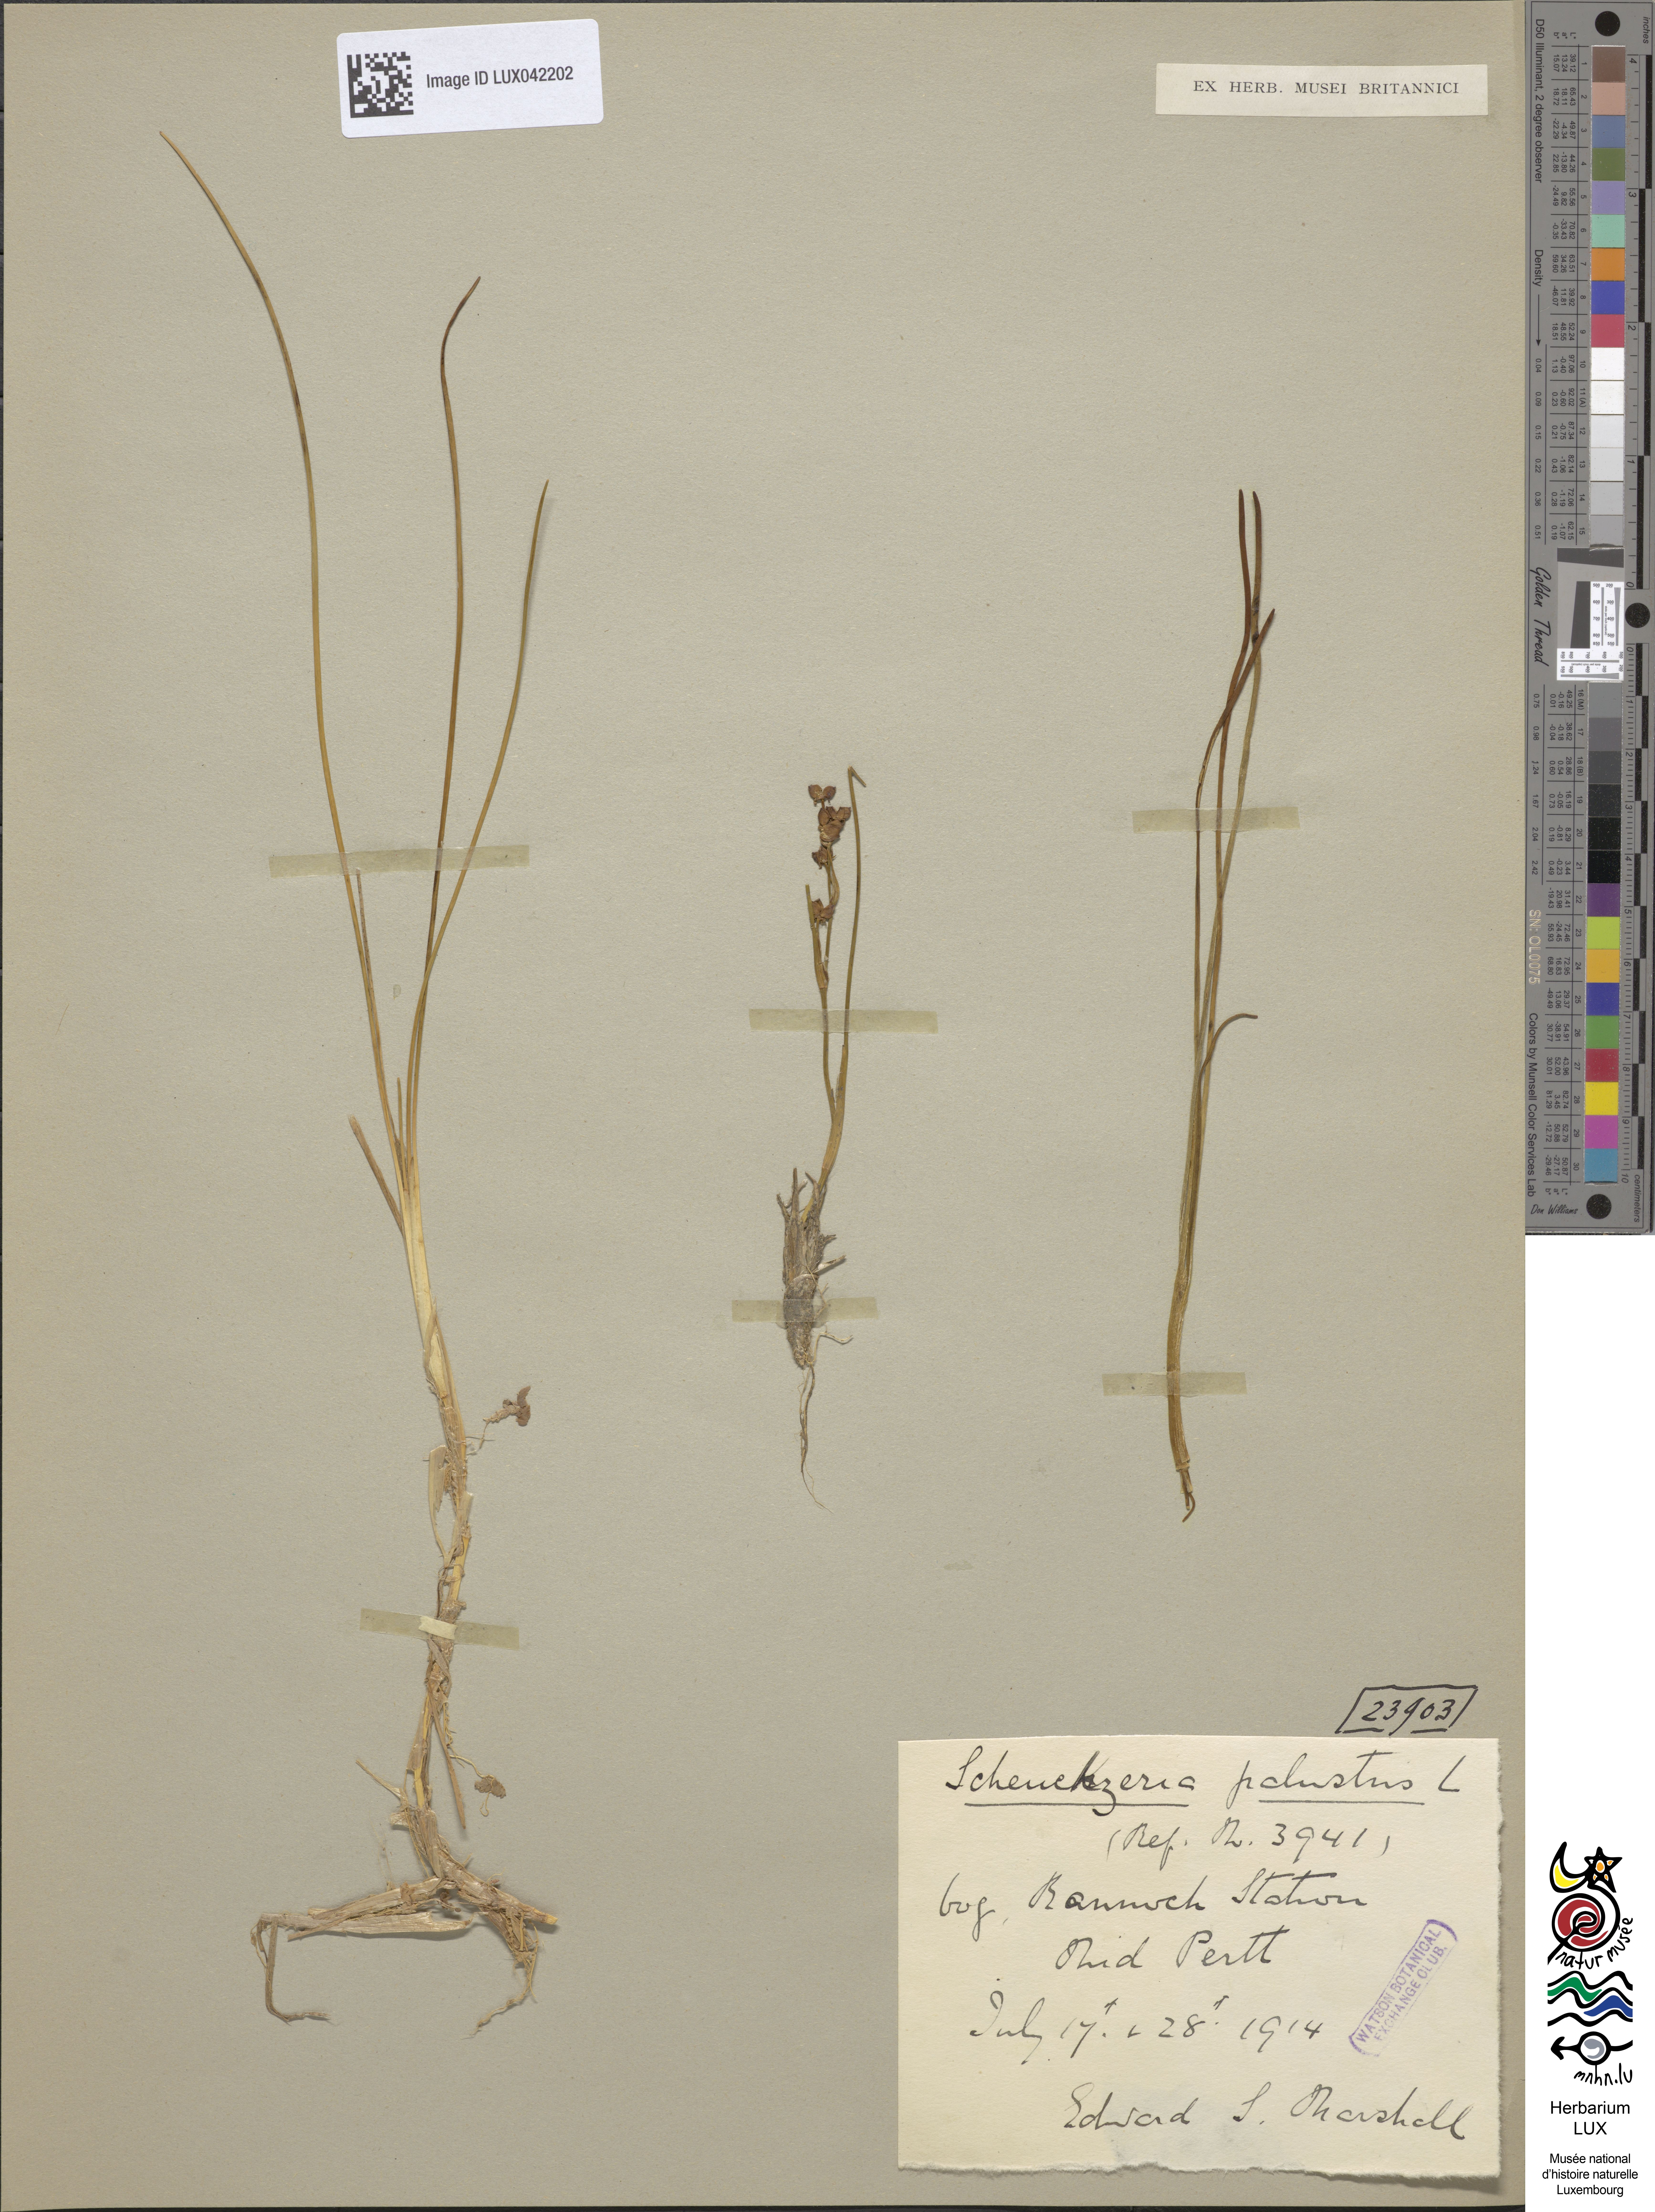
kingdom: Plantae
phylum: Tracheophyta
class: Liliopsida
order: Alismatales
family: Scheuchzeriaceae
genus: Scheuchzeria
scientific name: Scheuchzeria palustris
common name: Rannoch-rush
